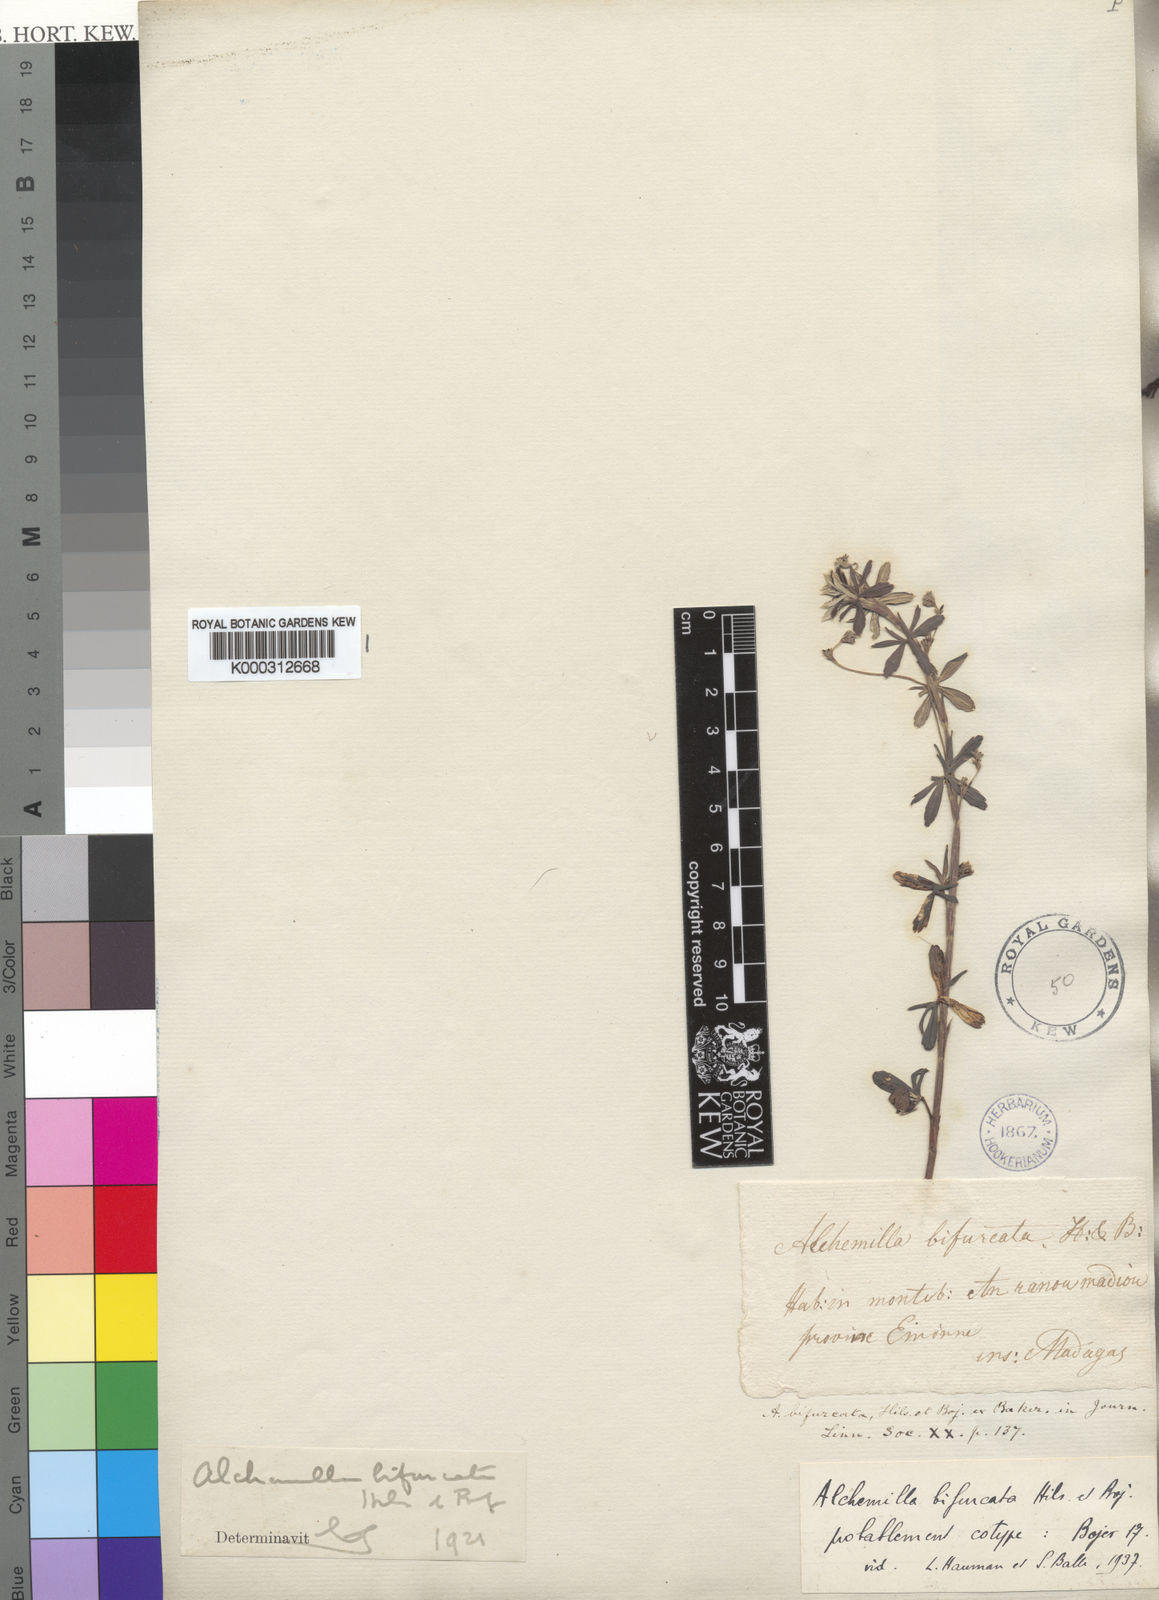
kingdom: Plantae
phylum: Tracheophyta
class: Magnoliopsida
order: Rosales
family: Rosaceae
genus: Alchemilla
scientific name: Alchemilla
